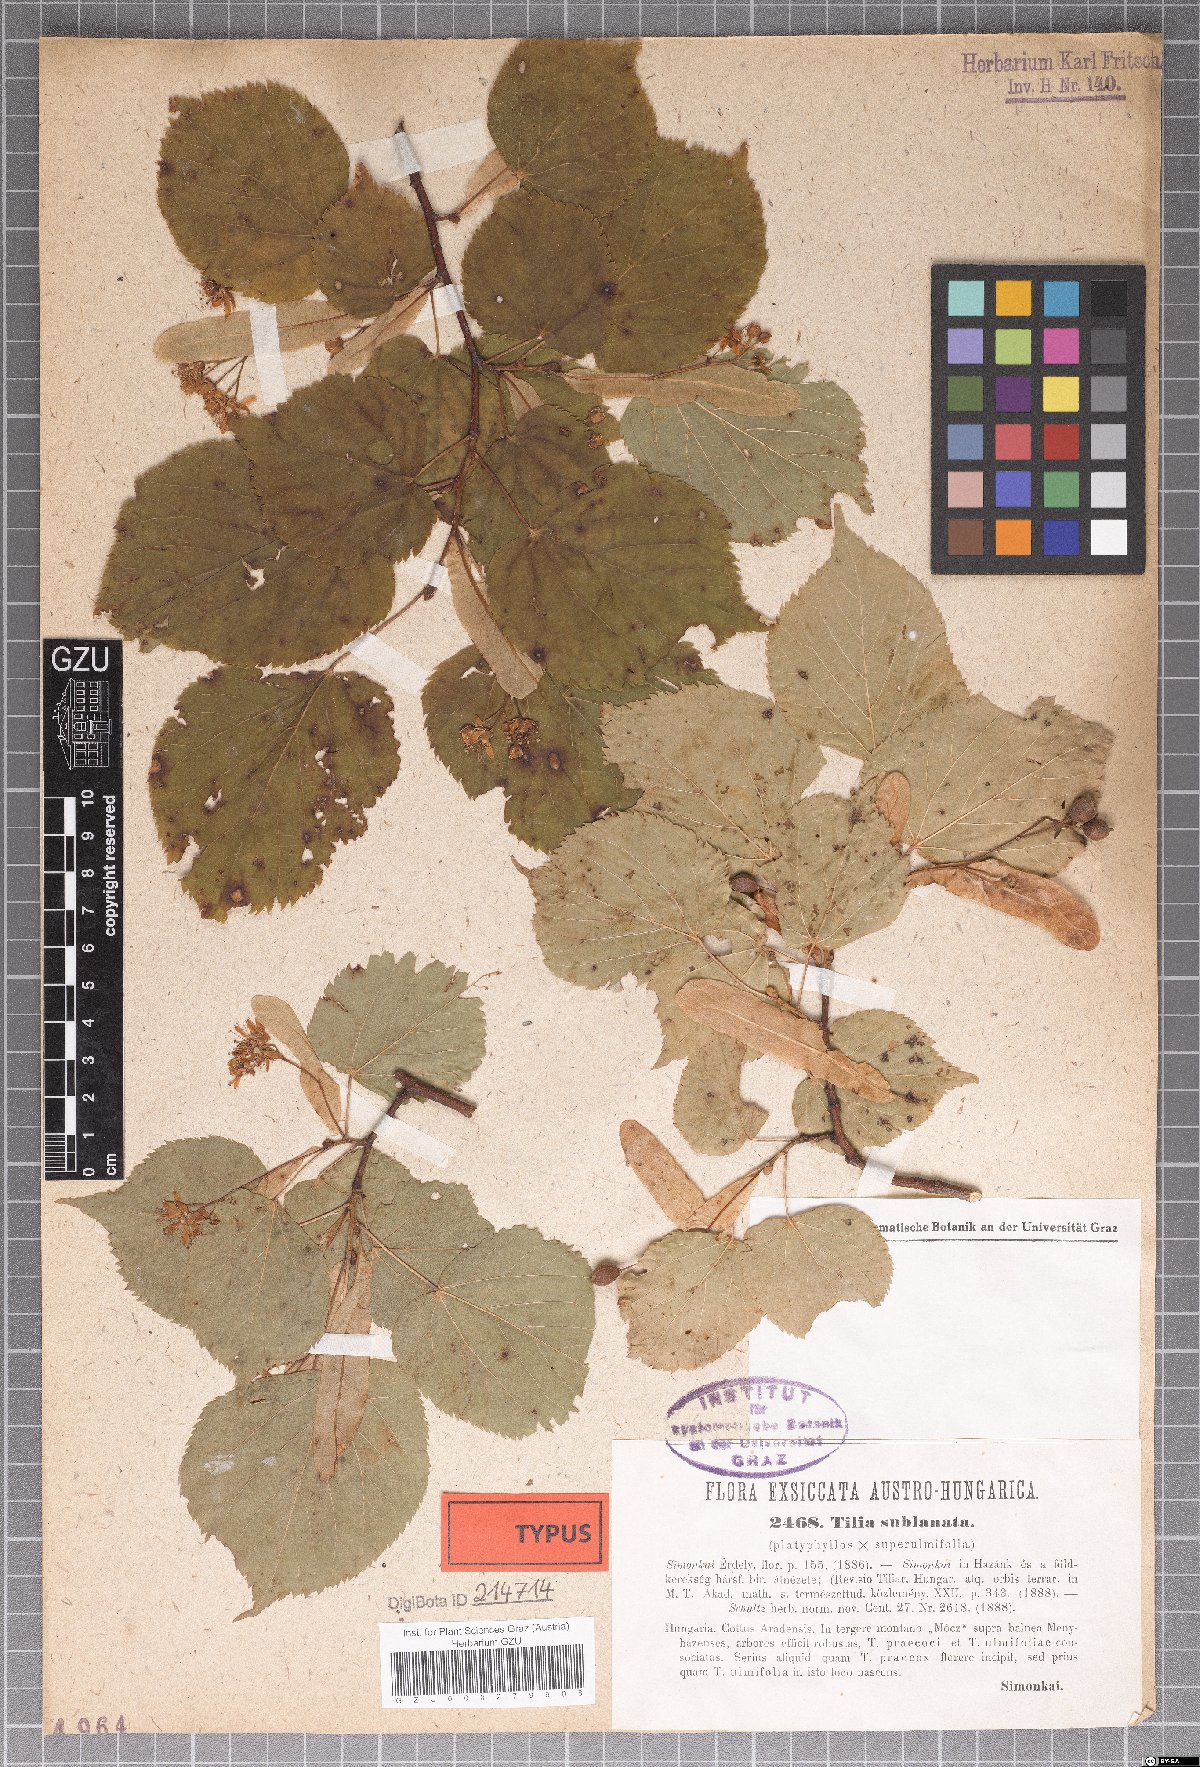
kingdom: Plantae
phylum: Tracheophyta
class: Magnoliopsida
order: Malvales
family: Malvaceae
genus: Tilia
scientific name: Tilia
